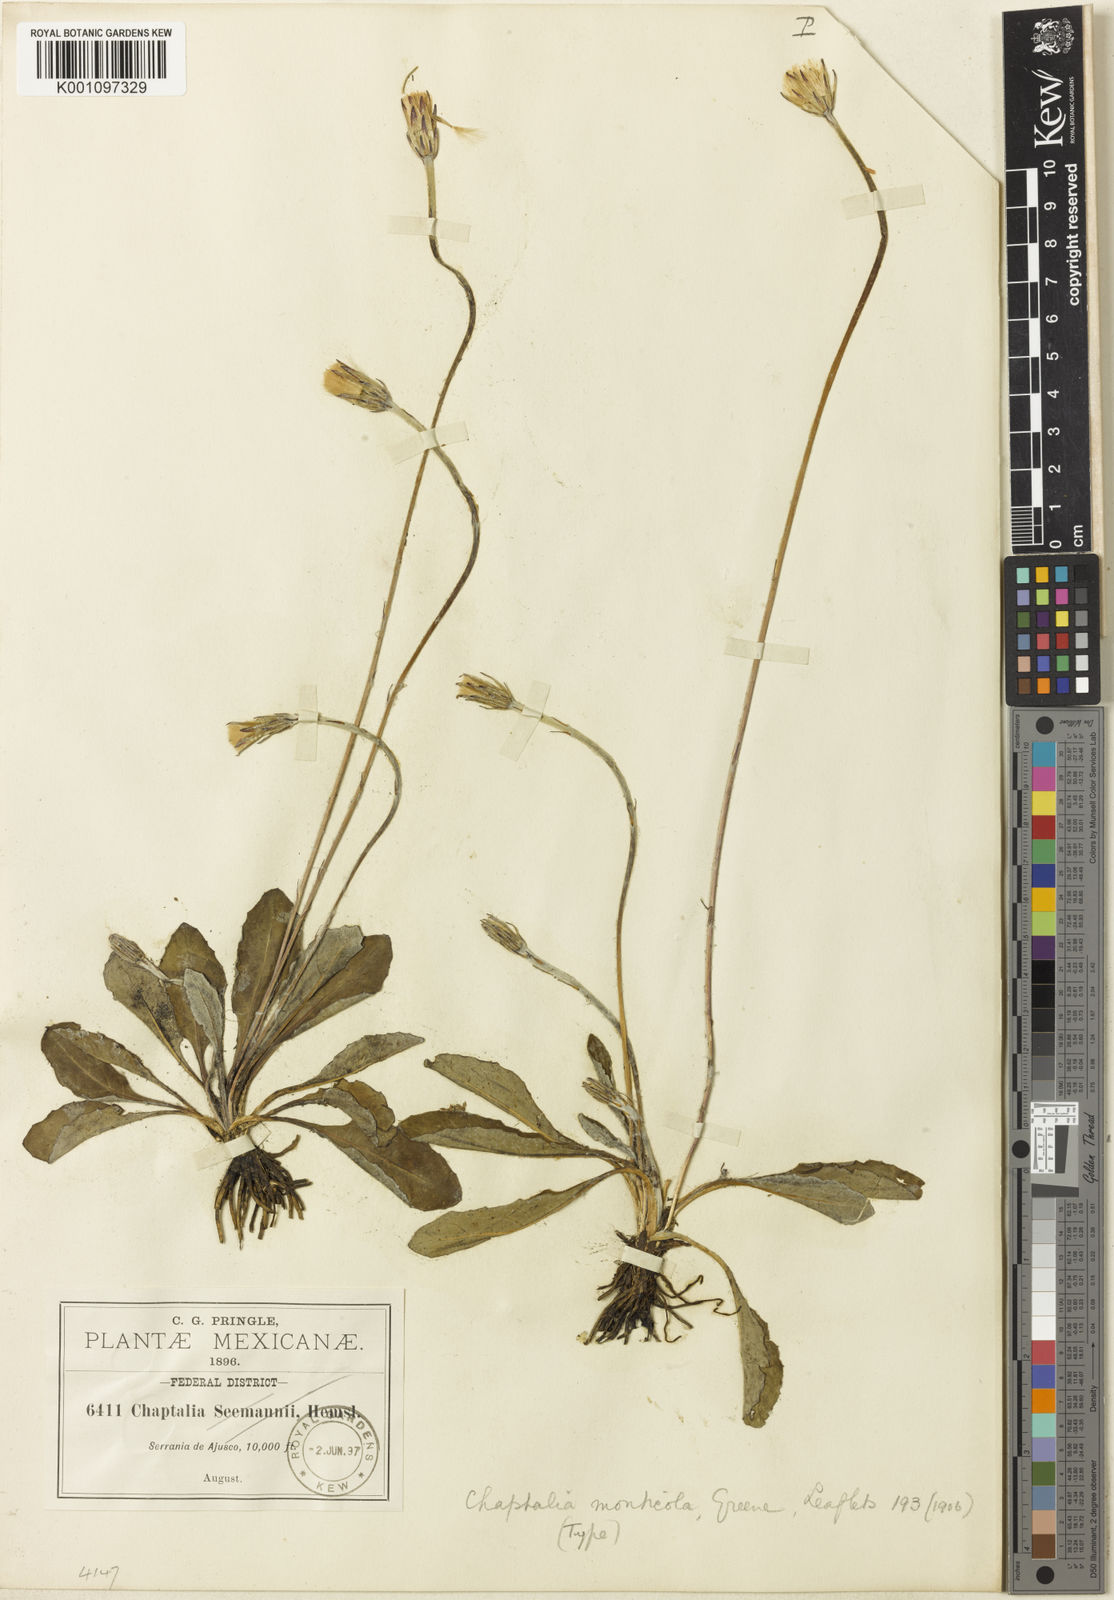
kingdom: Plantae
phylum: Tracheophyta
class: Magnoliopsida
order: Asterales
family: Asteraceae
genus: Leibnitzia
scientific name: Leibnitzia lyrata
